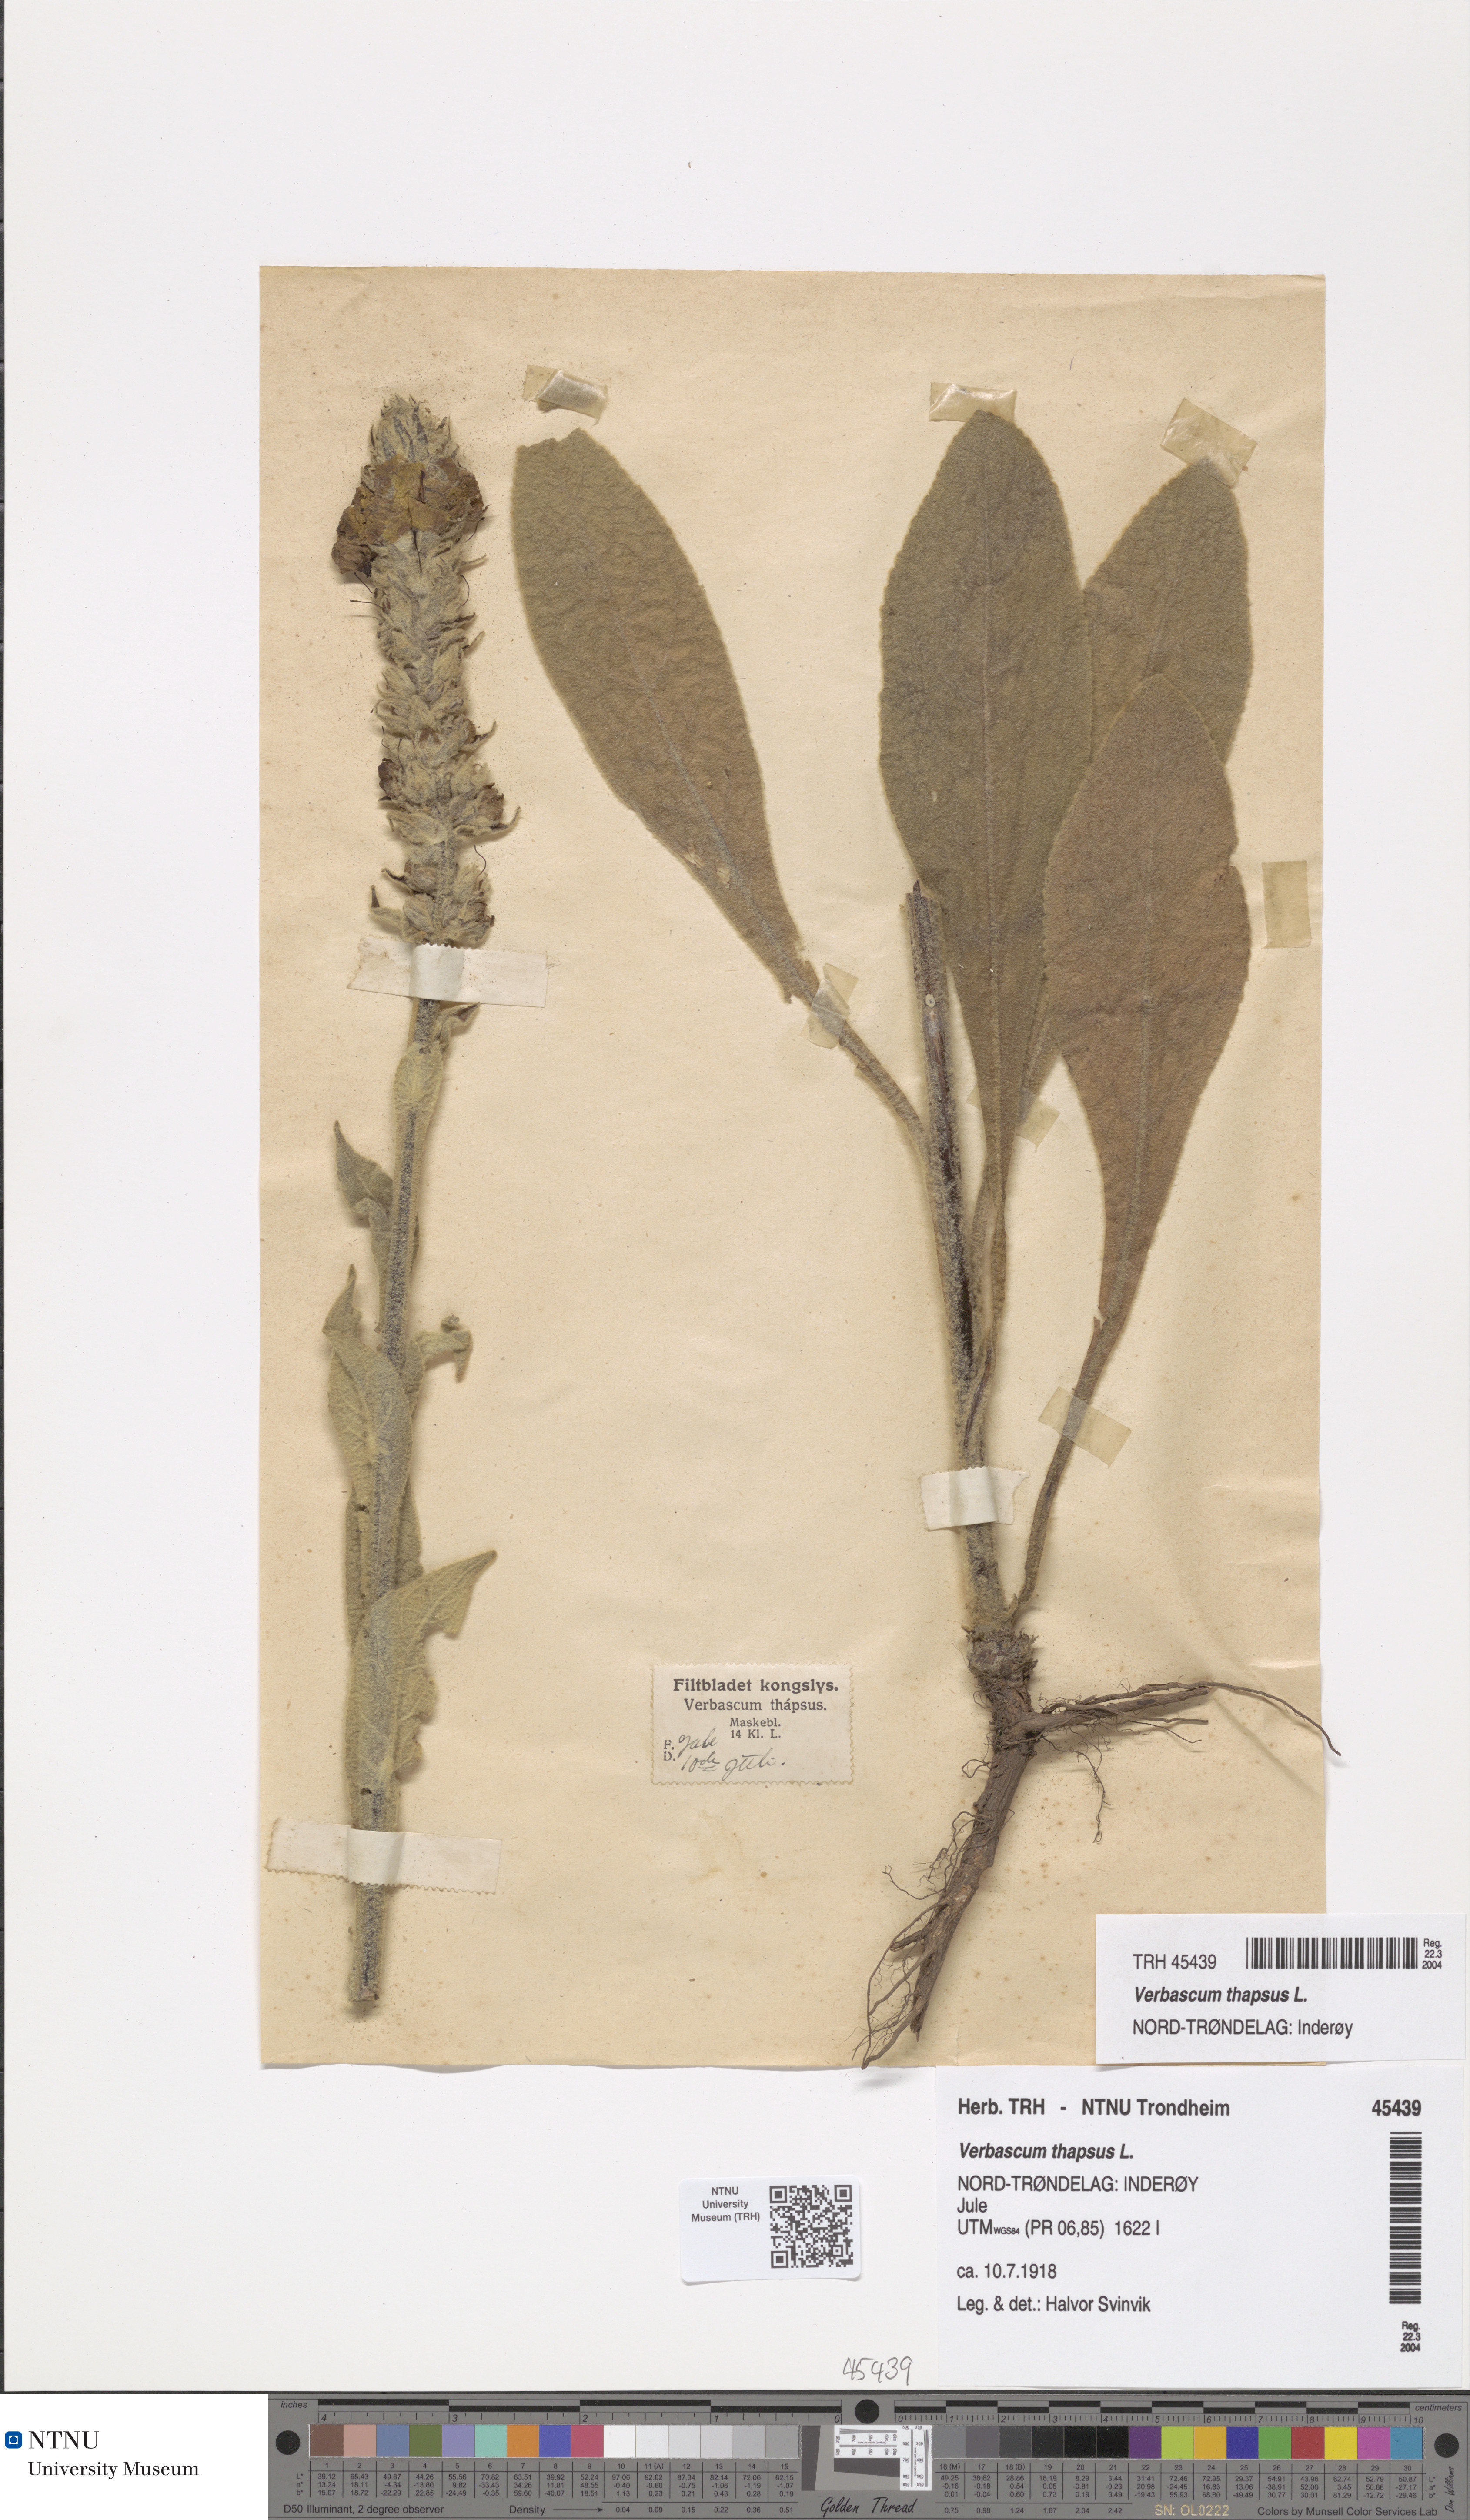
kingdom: Plantae
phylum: Tracheophyta
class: Magnoliopsida
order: Lamiales
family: Scrophulariaceae
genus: Verbascum
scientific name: Verbascum thapsus
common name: Common mullein
